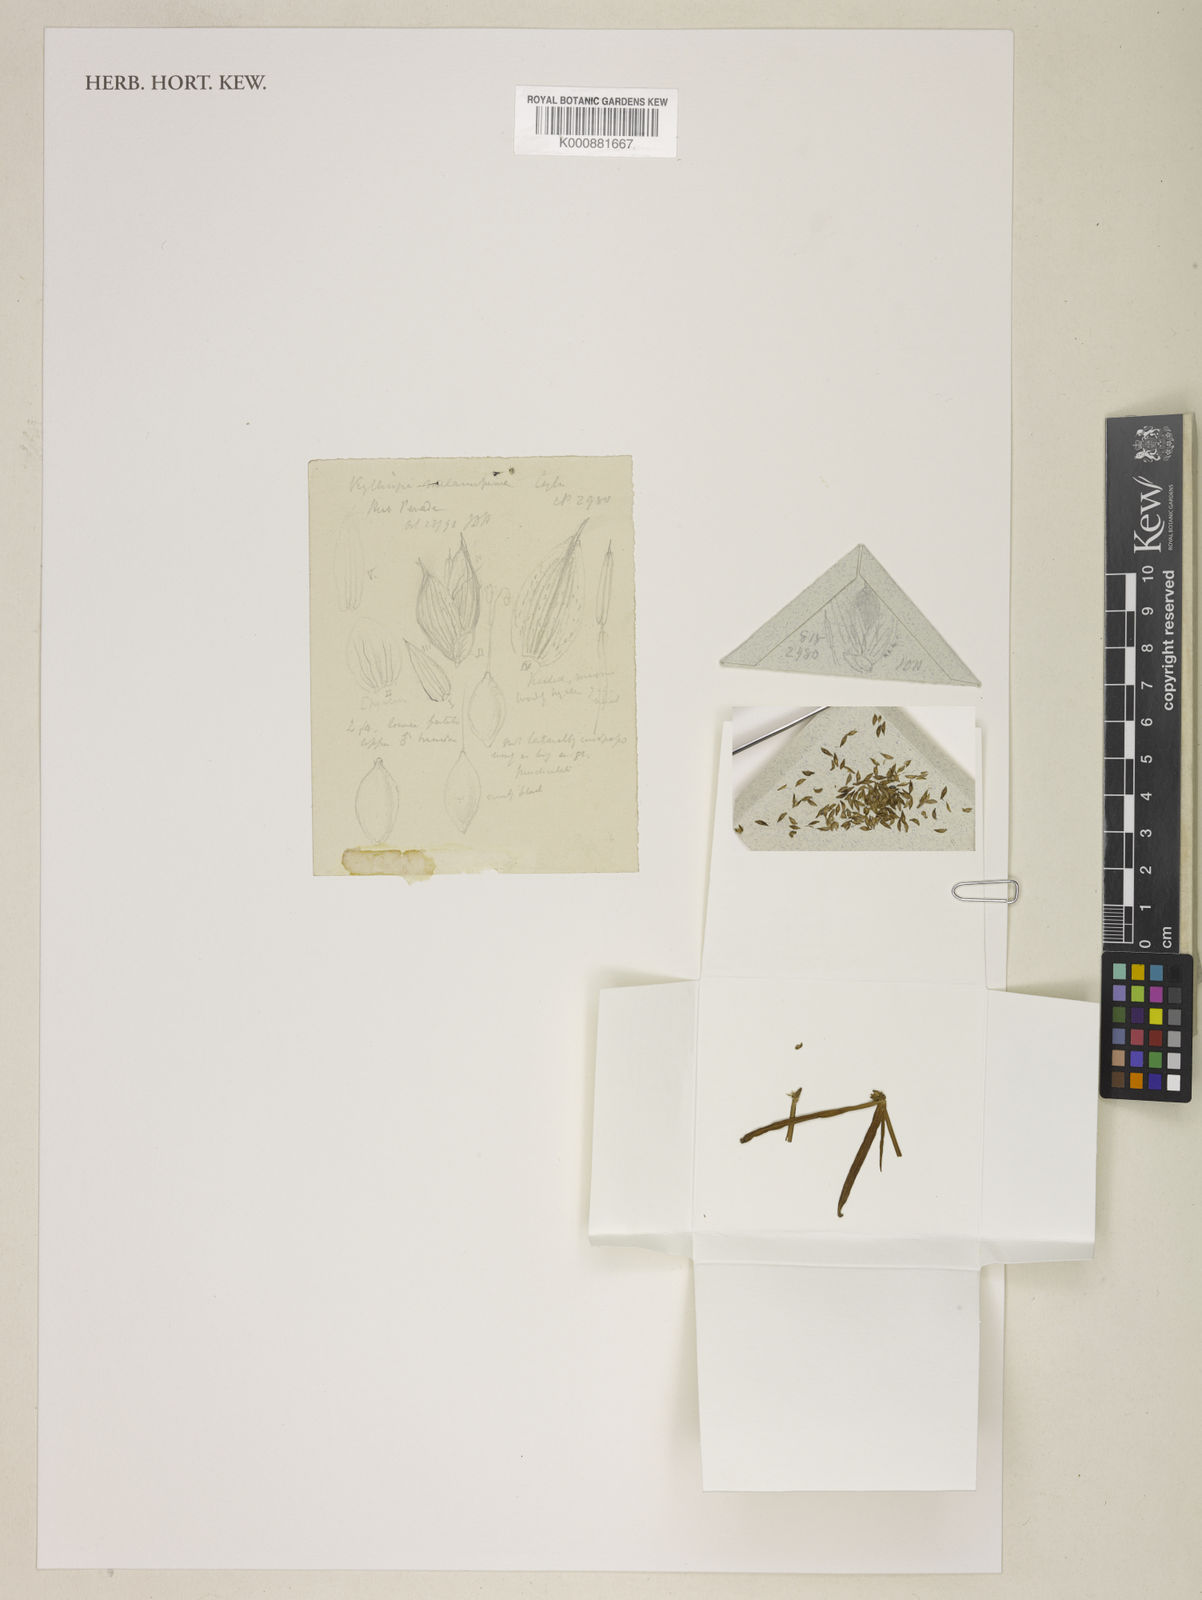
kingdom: Plantae
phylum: Tracheophyta
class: Liliopsida
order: Poales
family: Cyperaceae
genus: Cyperus
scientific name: Cyperus melanospermus
